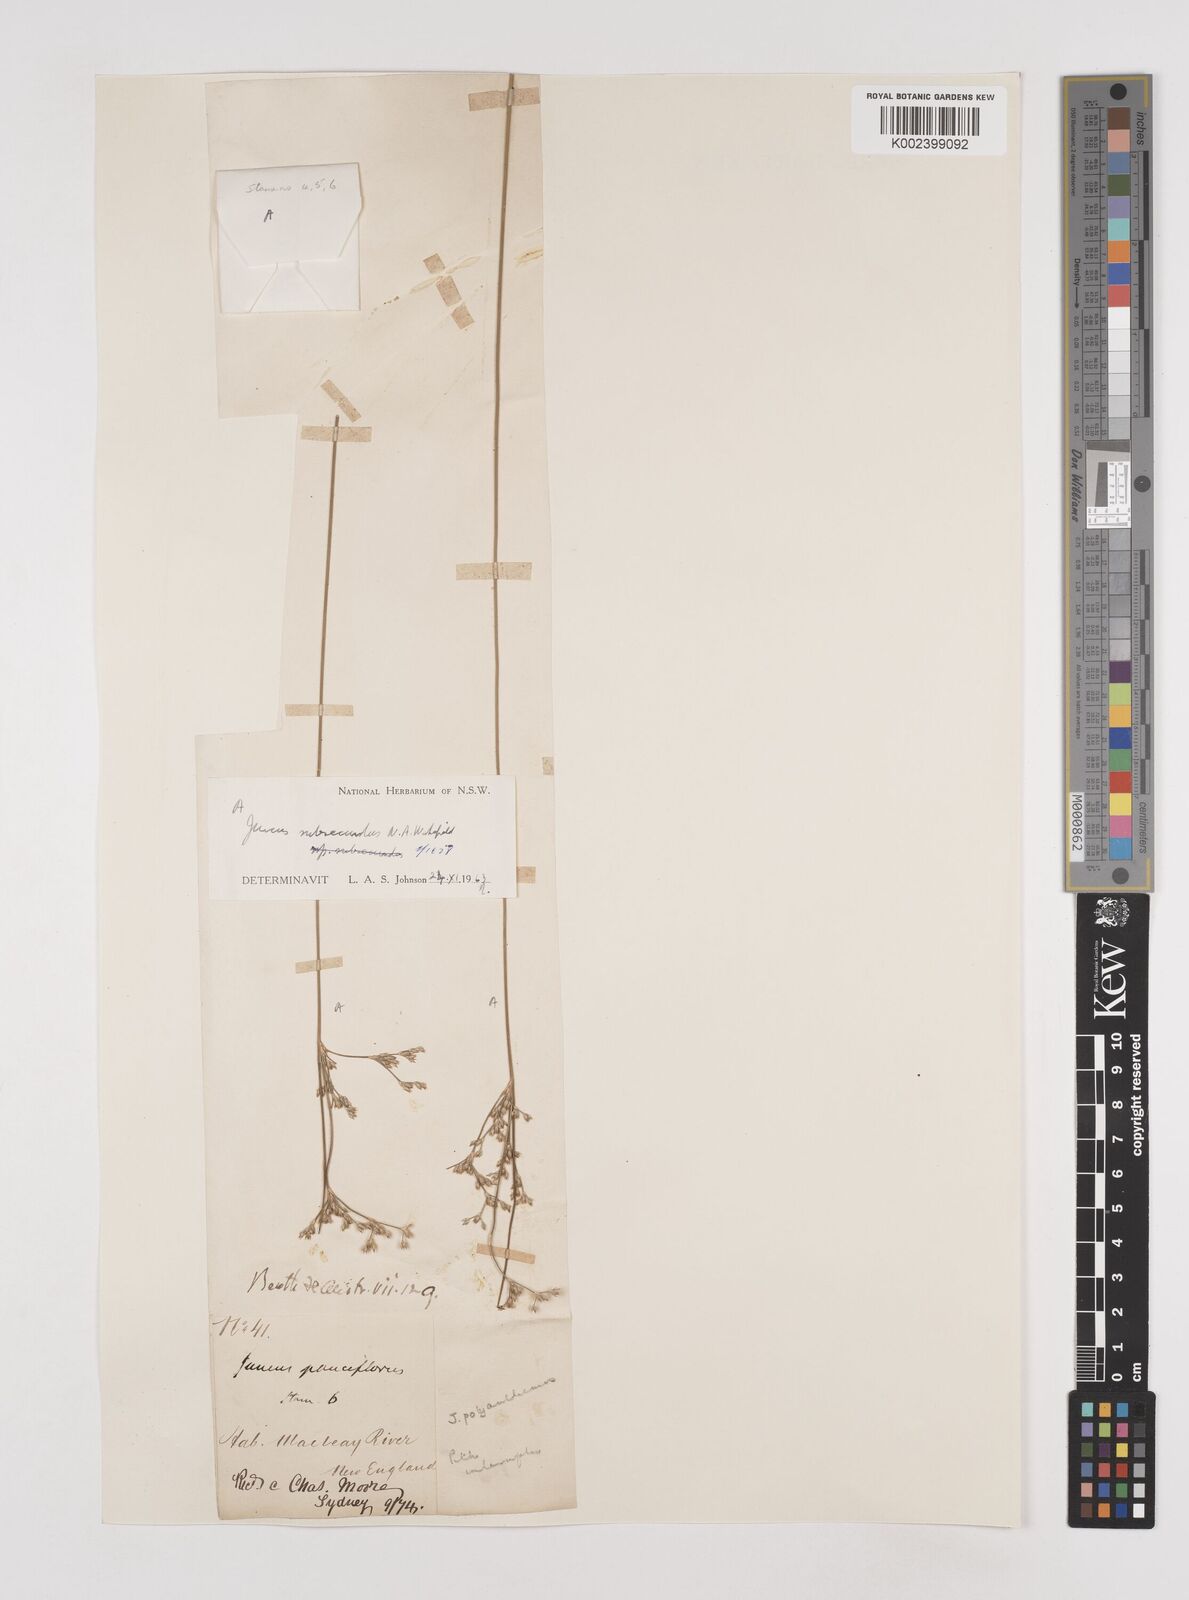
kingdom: Plantae
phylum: Tracheophyta
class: Liliopsida
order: Poales
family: Juncaceae
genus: Juncus
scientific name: Juncus subsecundus
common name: Fingered rush
